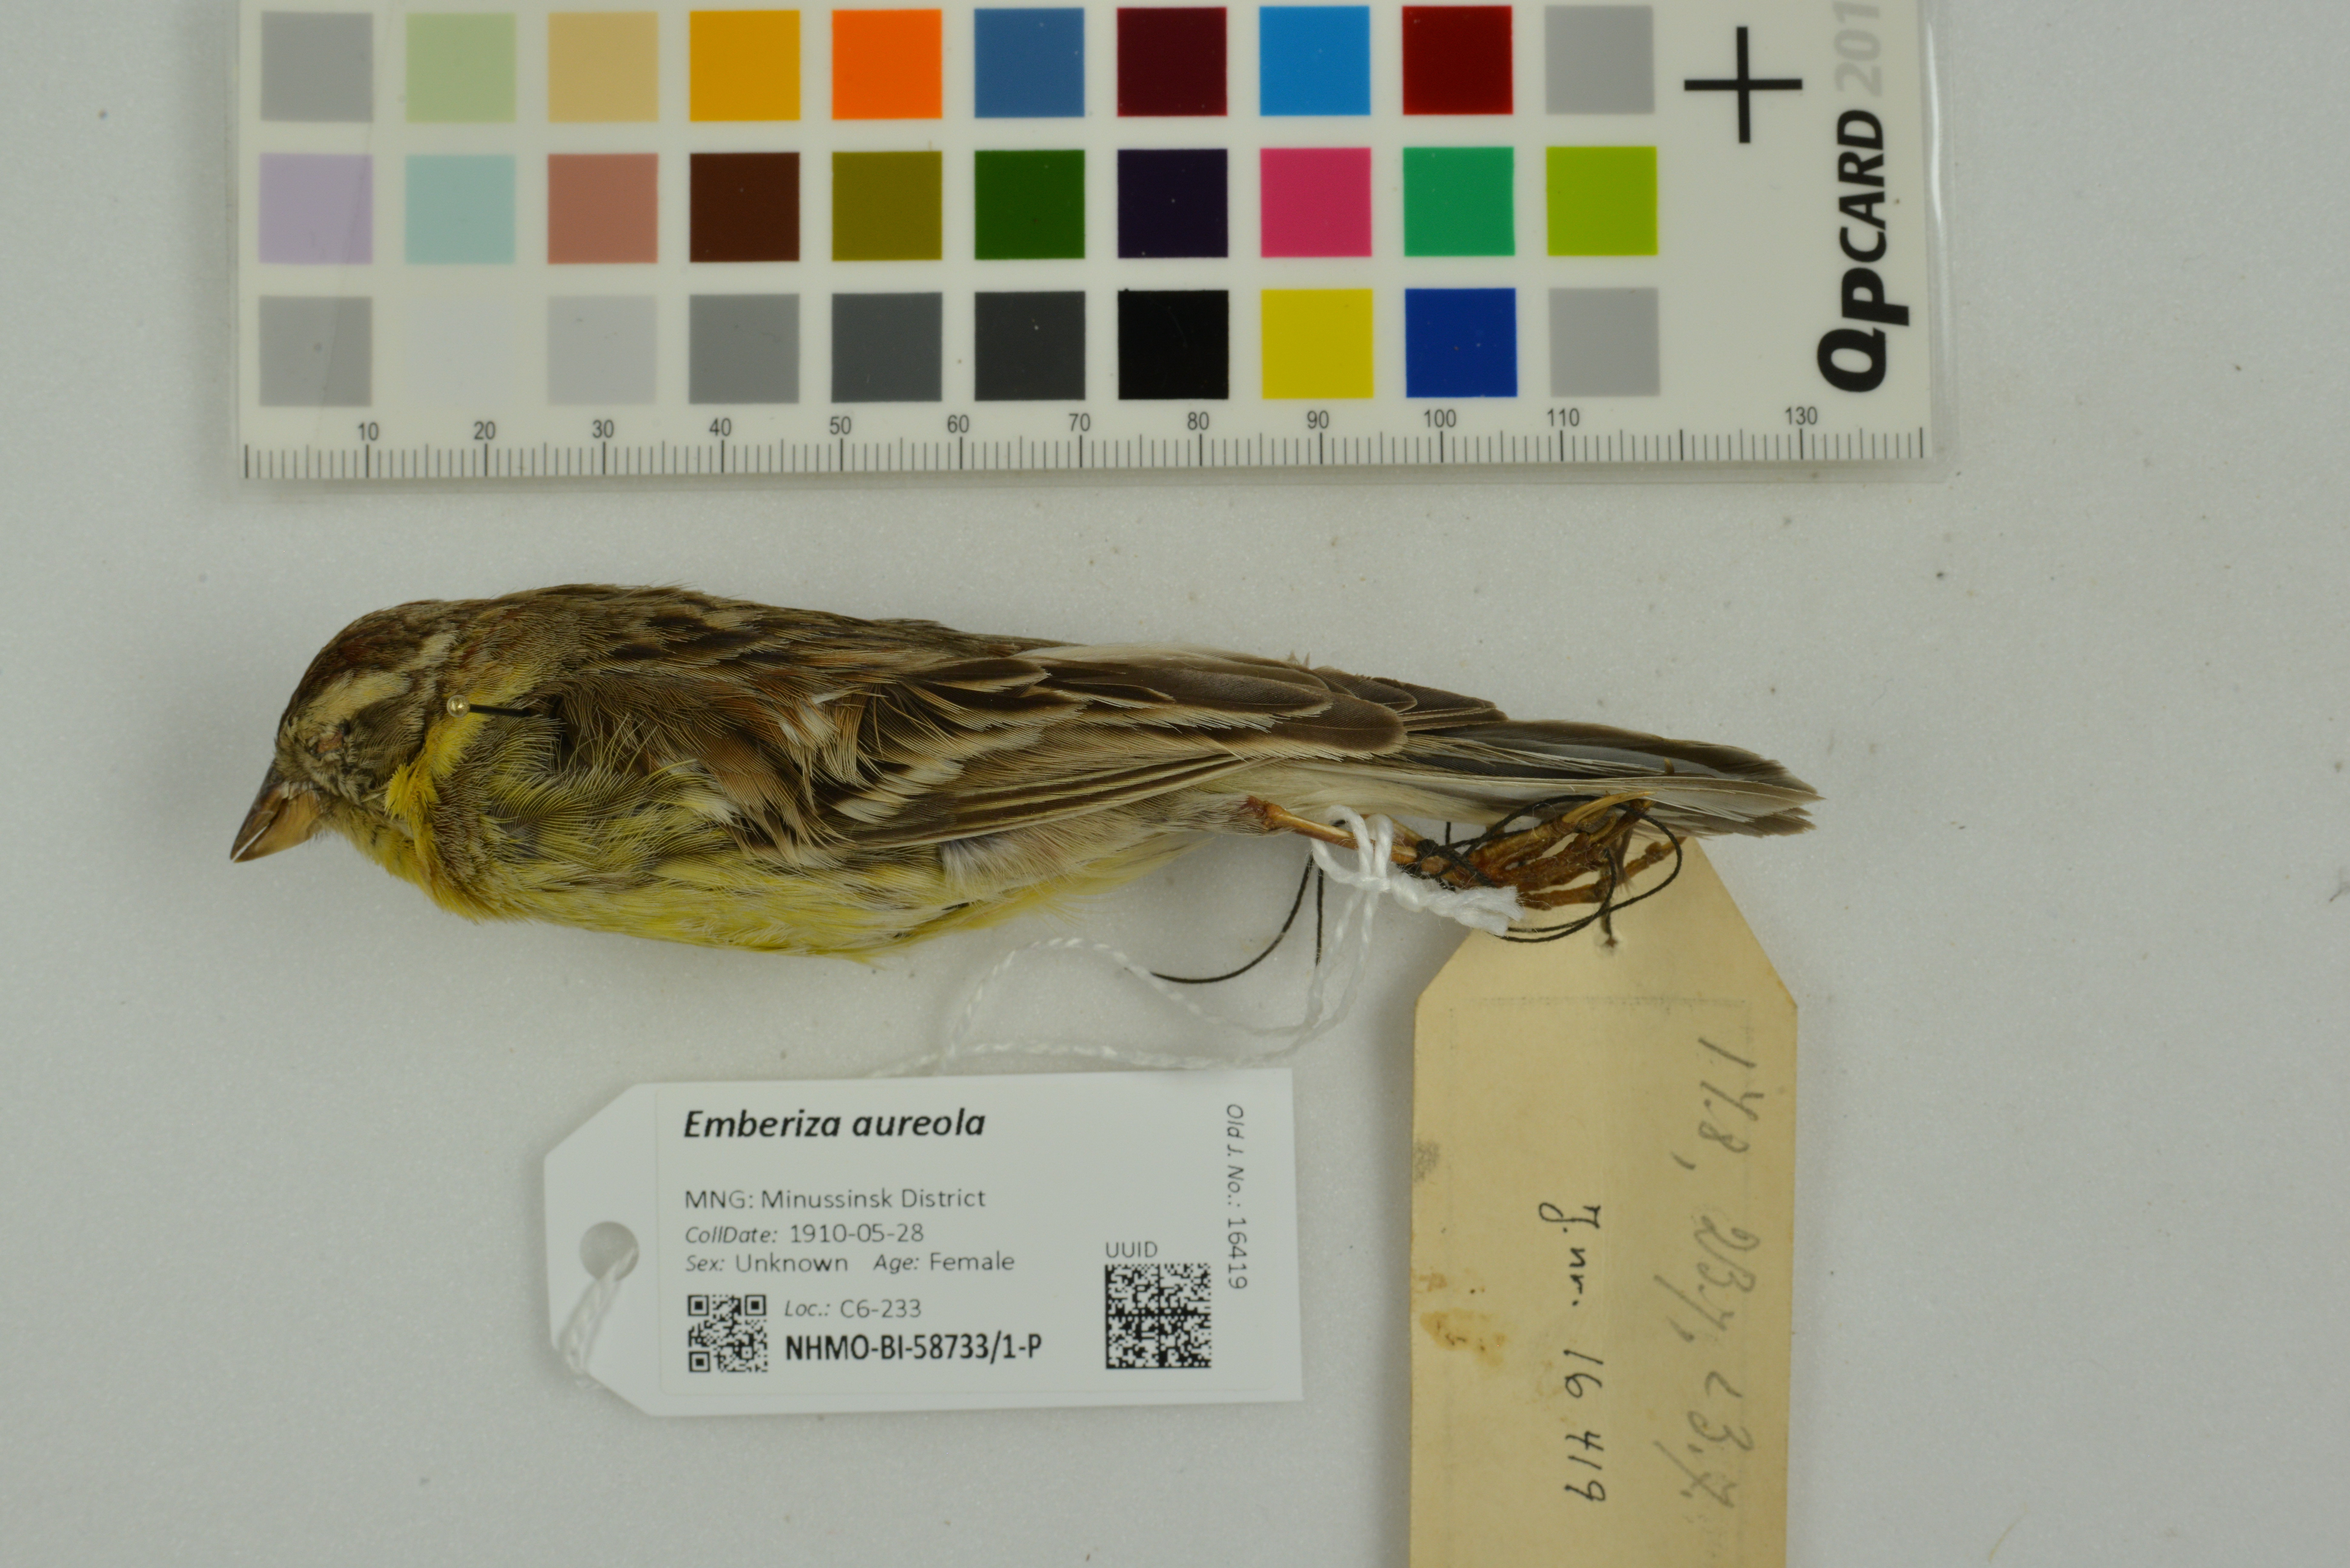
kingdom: Animalia
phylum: Chordata
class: Aves
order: Passeriformes
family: Emberizidae
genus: Emberiza
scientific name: Emberiza aureola
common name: Yellow-breasted bunting
